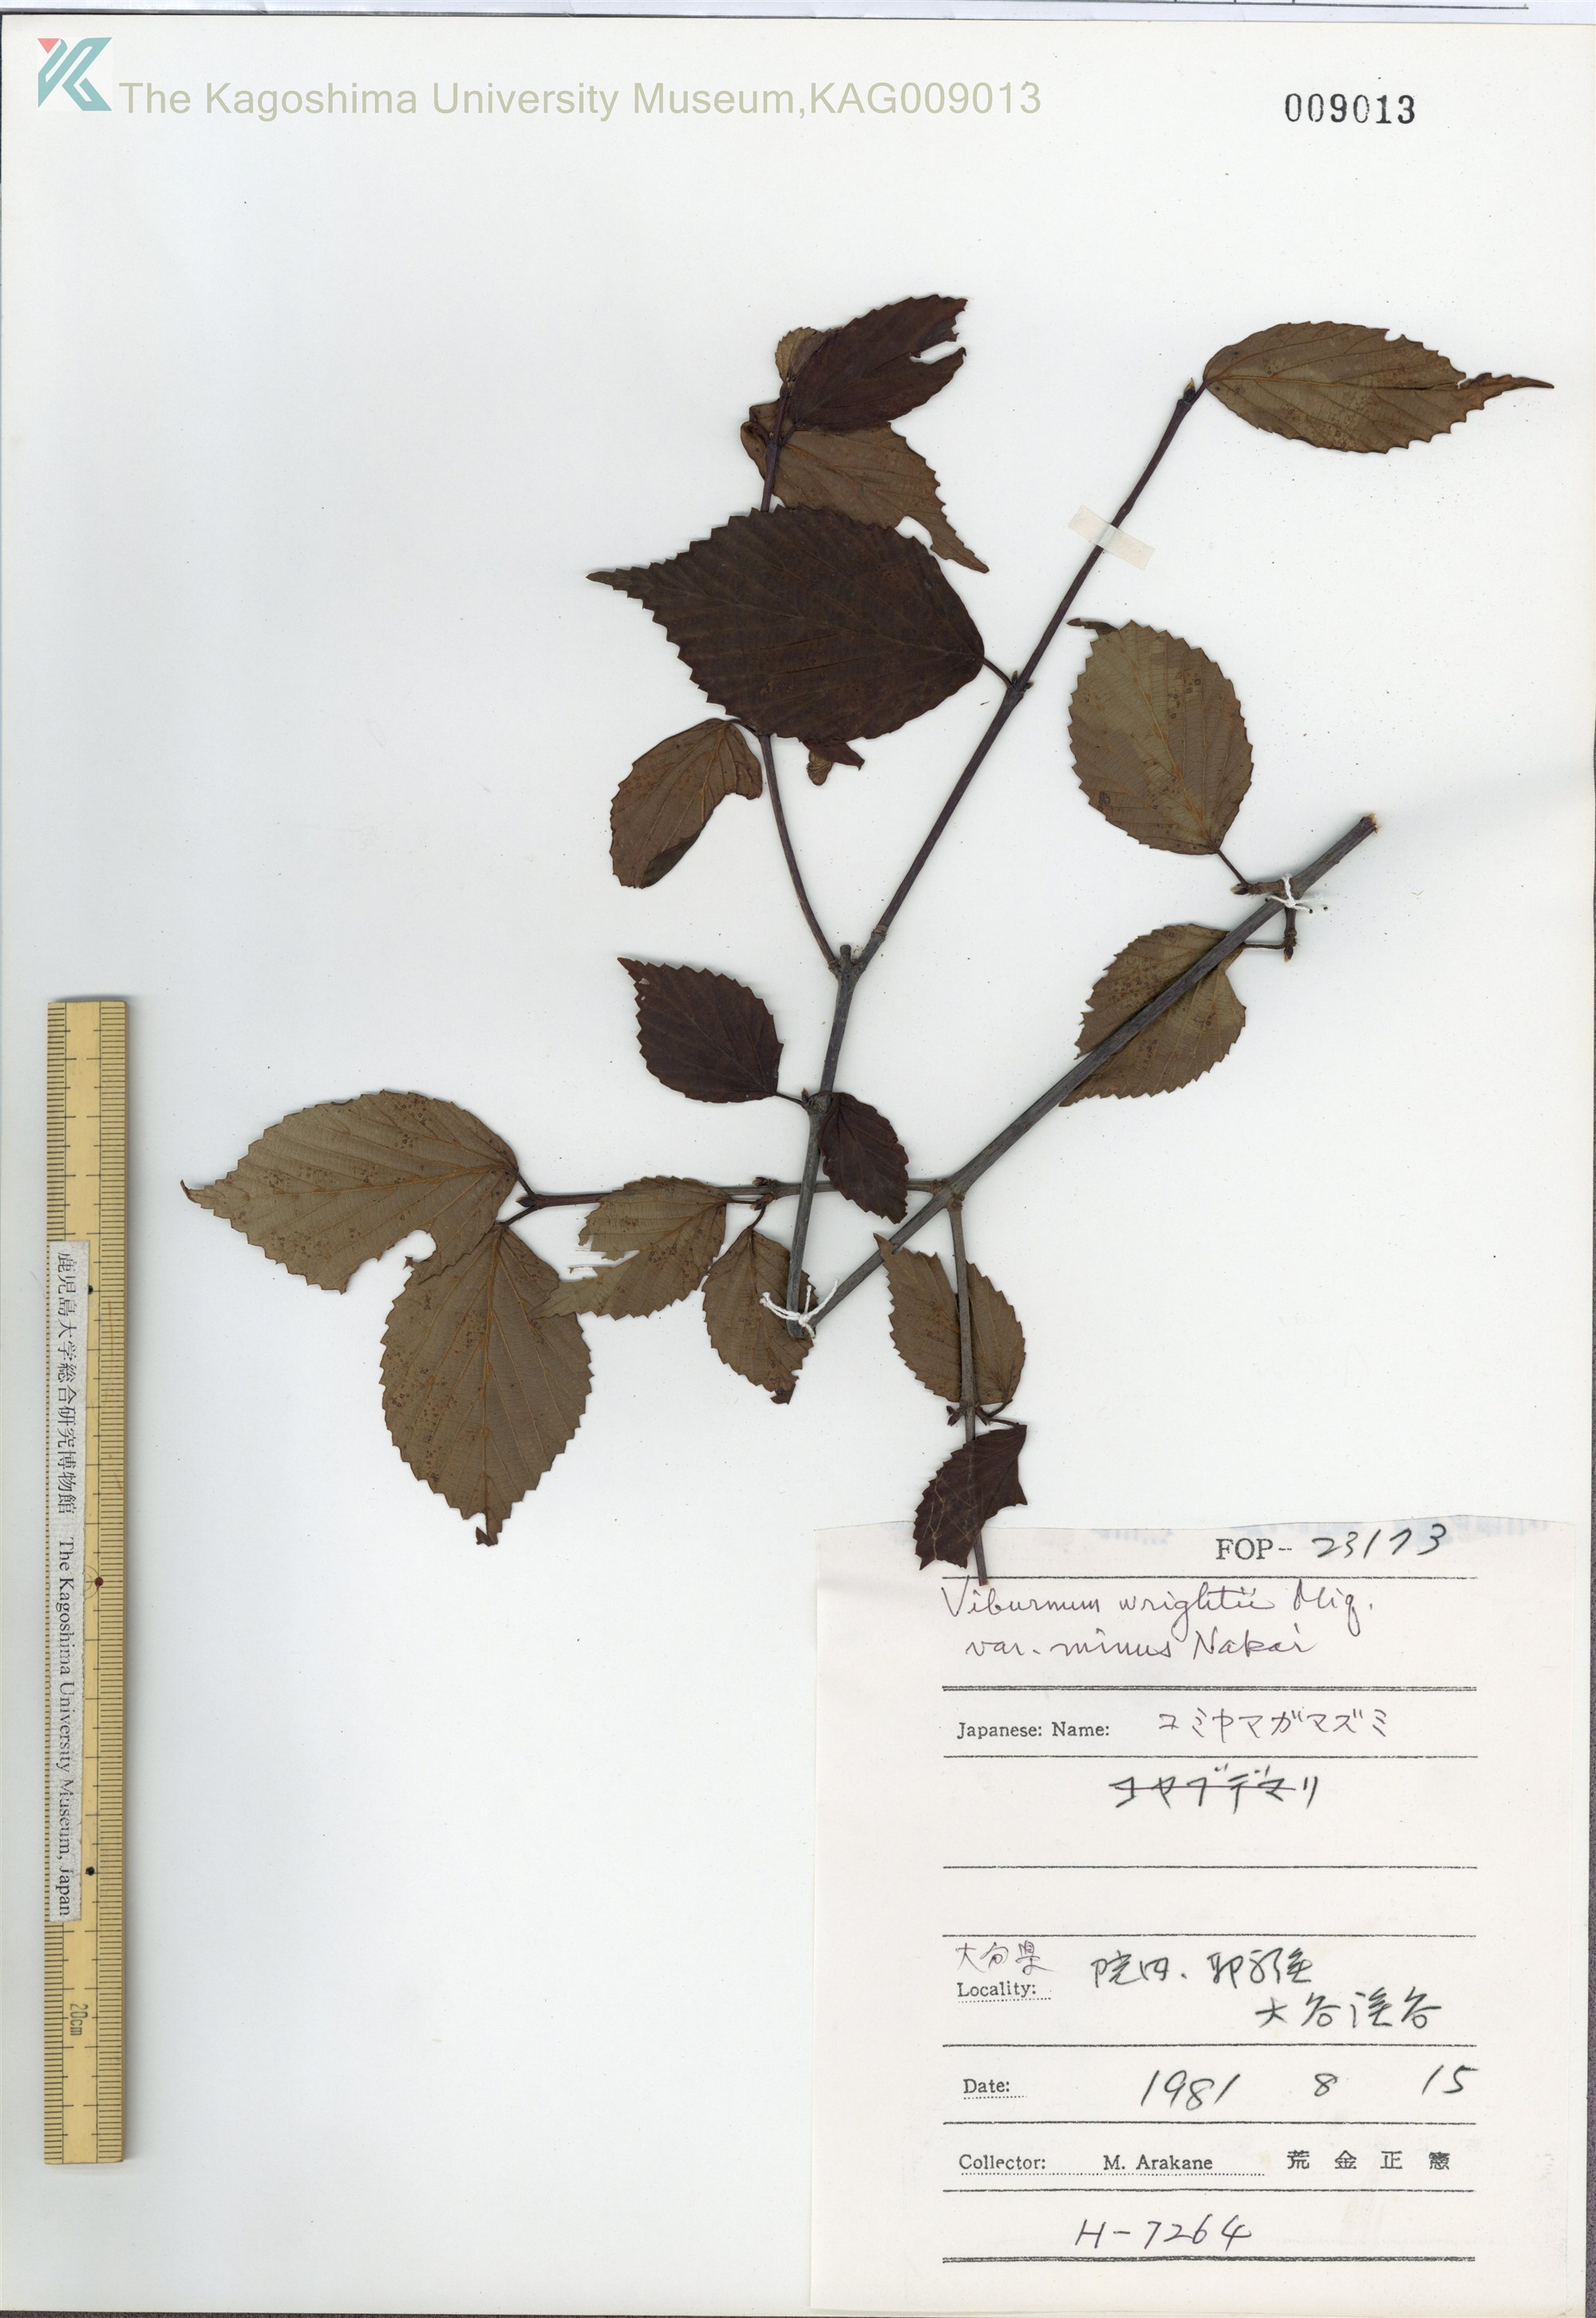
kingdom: Plantae
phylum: Tracheophyta
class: Magnoliopsida
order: Dipsacales
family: Viburnaceae
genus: Viburnum
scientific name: Viburnum wrightii
